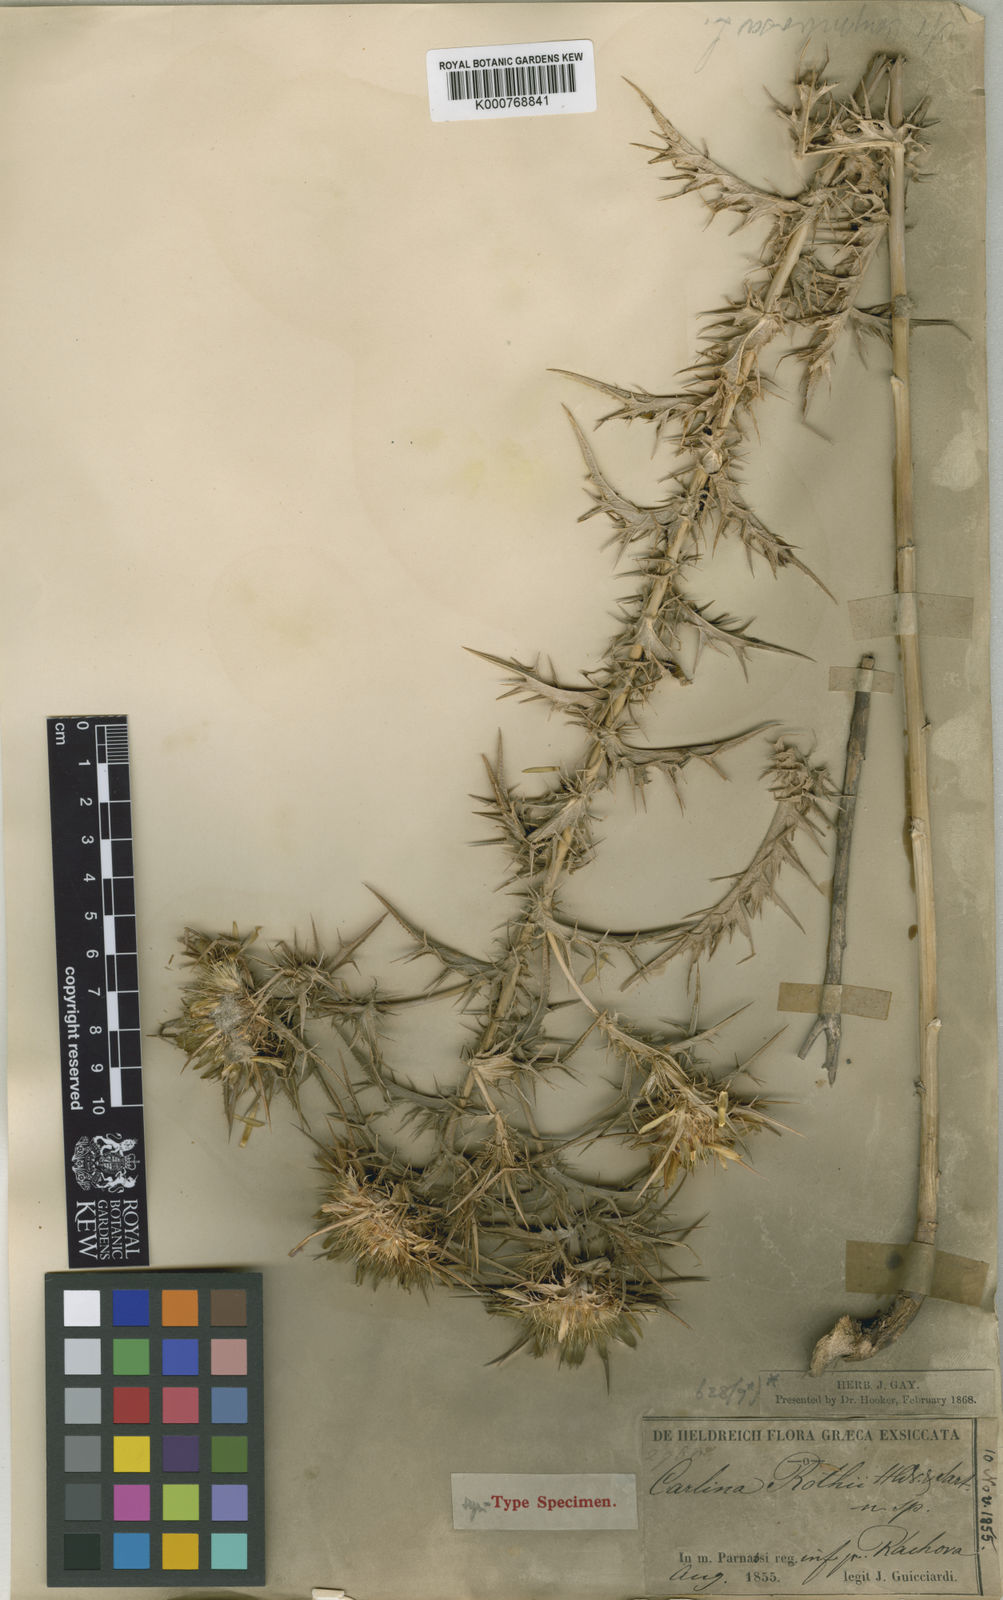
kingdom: Plantae
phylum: Tracheophyta
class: Magnoliopsida
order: Asterales
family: Asteraceae
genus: Carlina
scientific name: Carlina graeca
